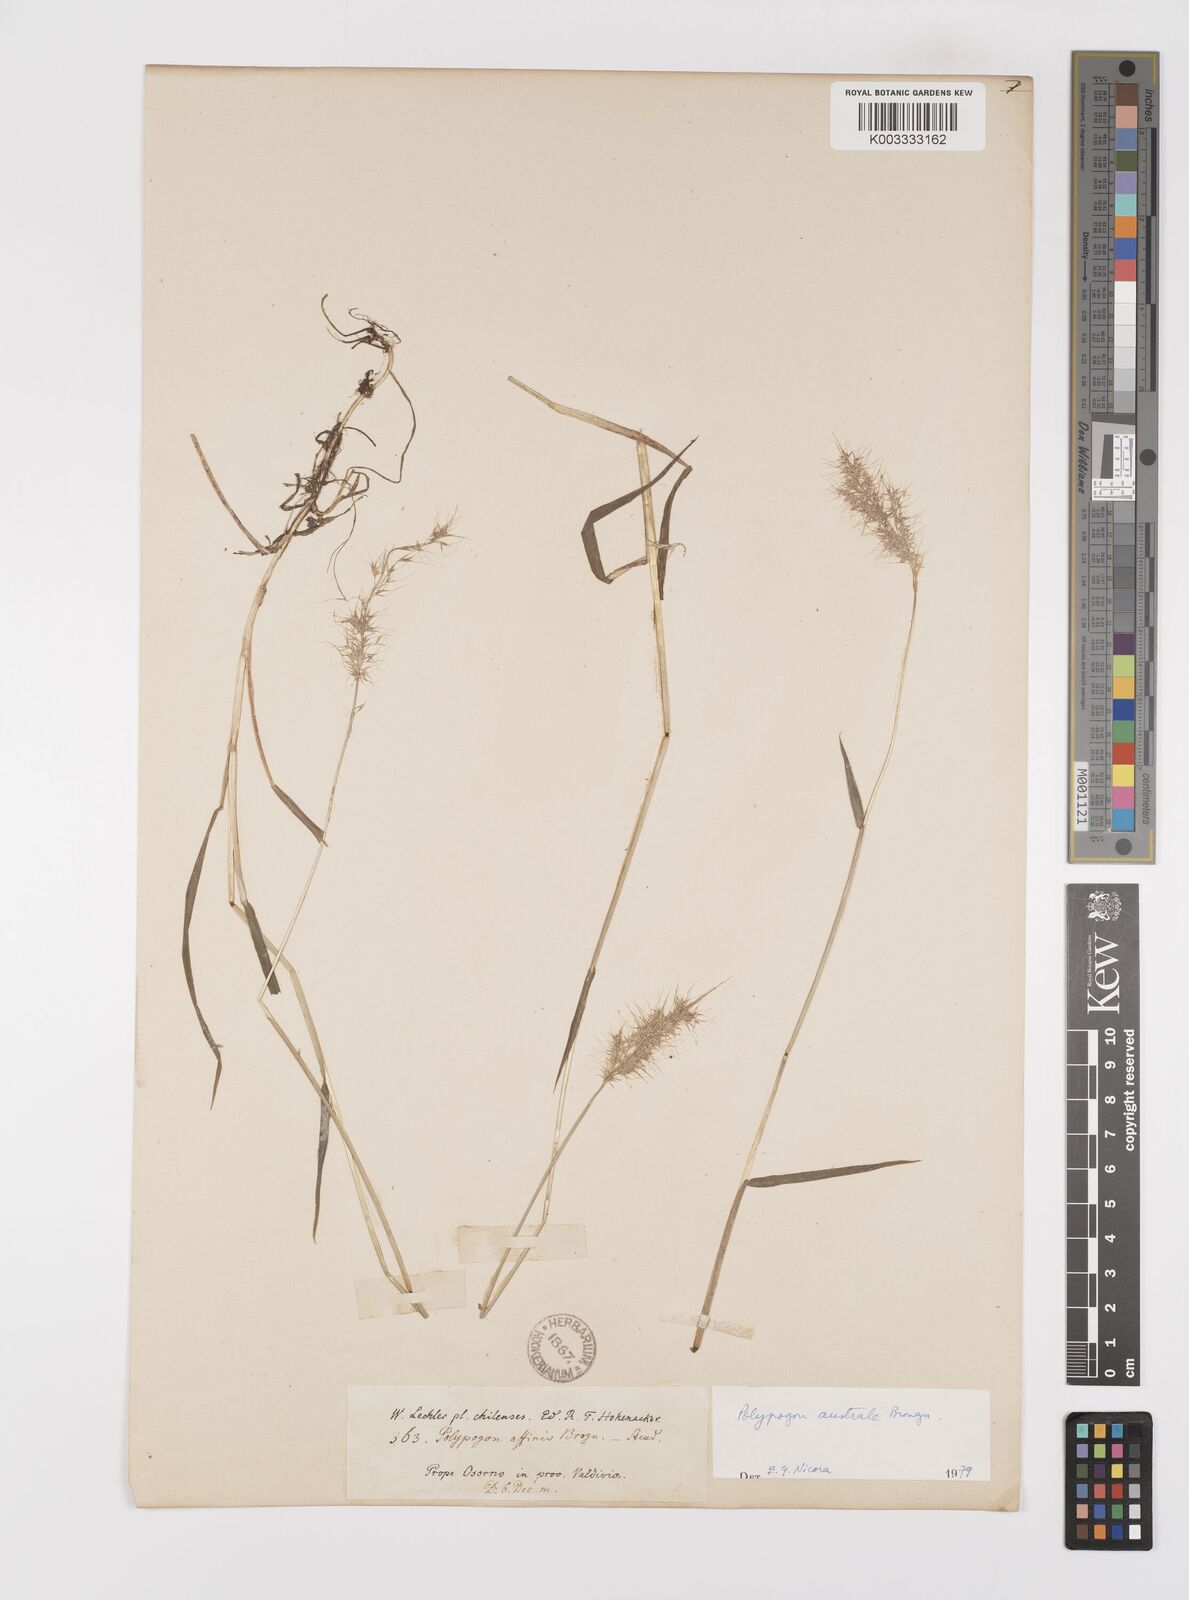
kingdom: Plantae
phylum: Tracheophyta
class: Liliopsida
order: Poales
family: Poaceae
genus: Polypogon
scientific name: Polypogon australis
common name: Chilean rabbitsfoot grass
